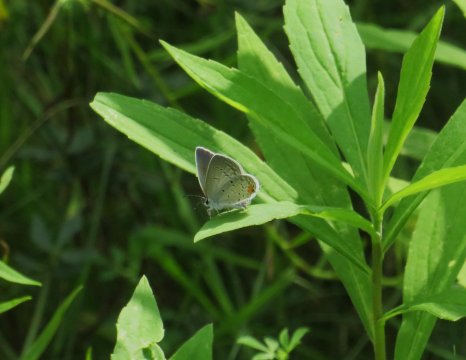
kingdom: Animalia
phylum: Arthropoda
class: Insecta
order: Lepidoptera
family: Lycaenidae
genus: Elkalyce
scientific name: Elkalyce comyntas
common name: Eastern Tailed-Blue
